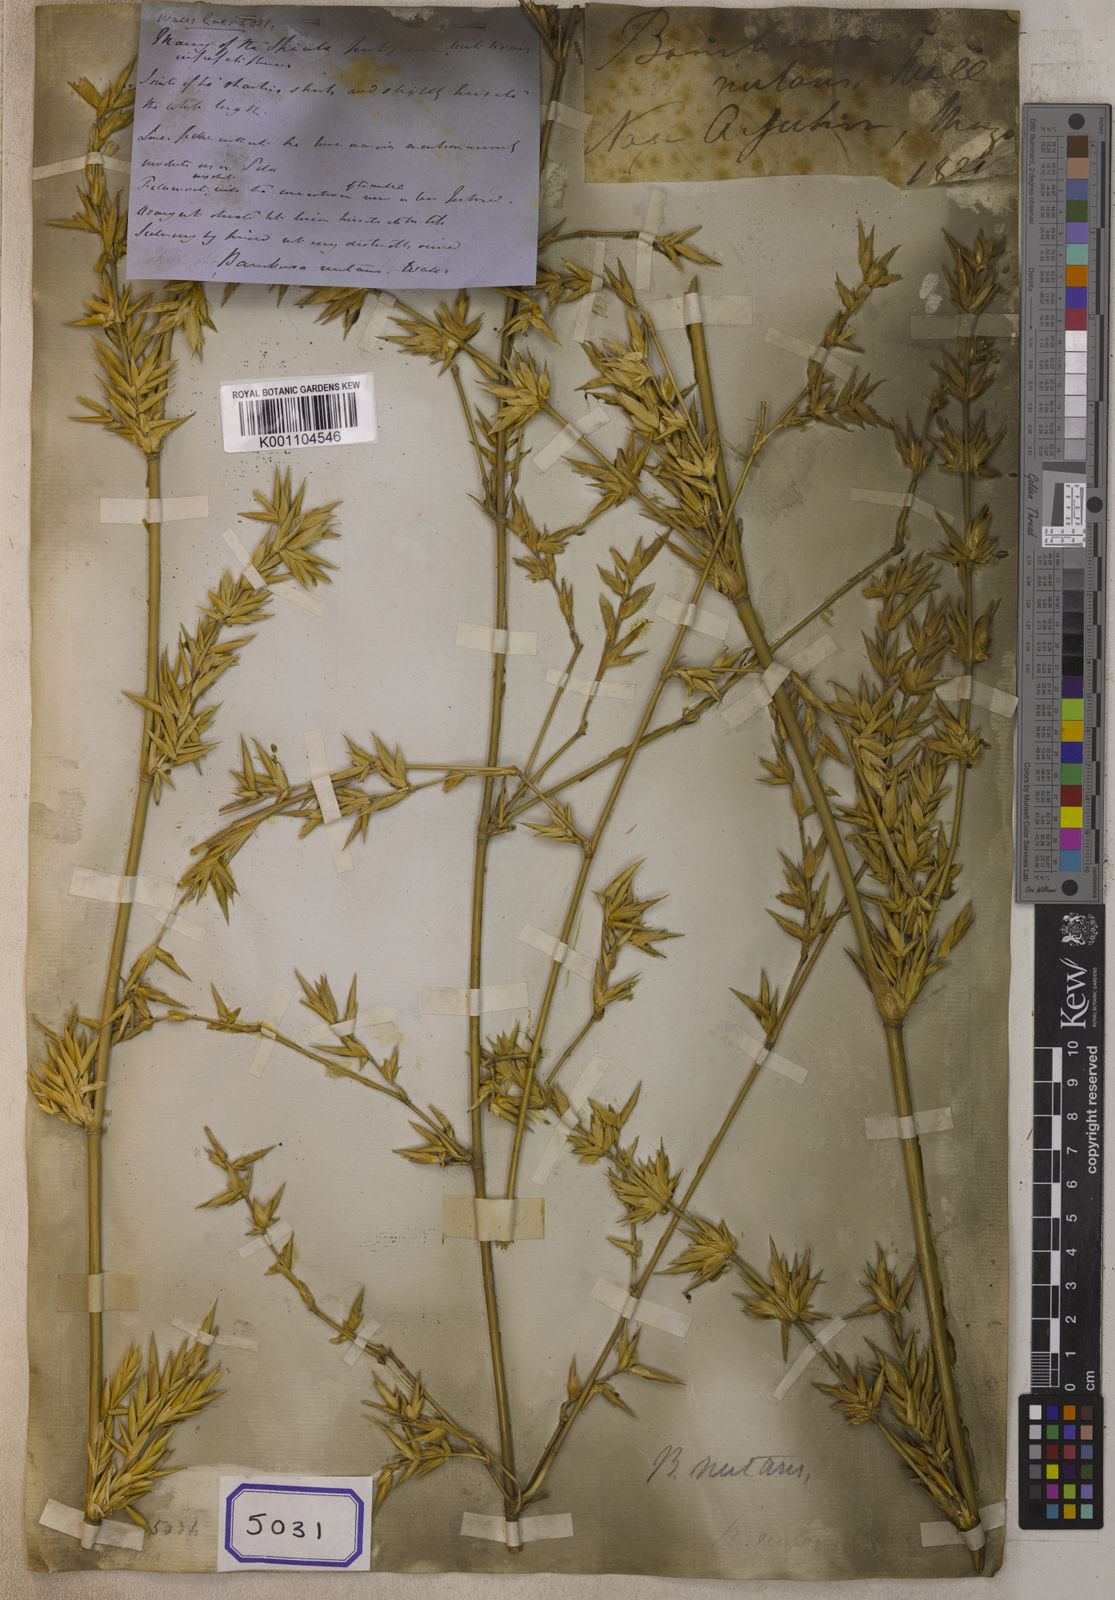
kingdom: Plantae
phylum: Tracheophyta
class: Liliopsida
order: Poales
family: Poaceae
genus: Bambusa
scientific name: Bambusa
